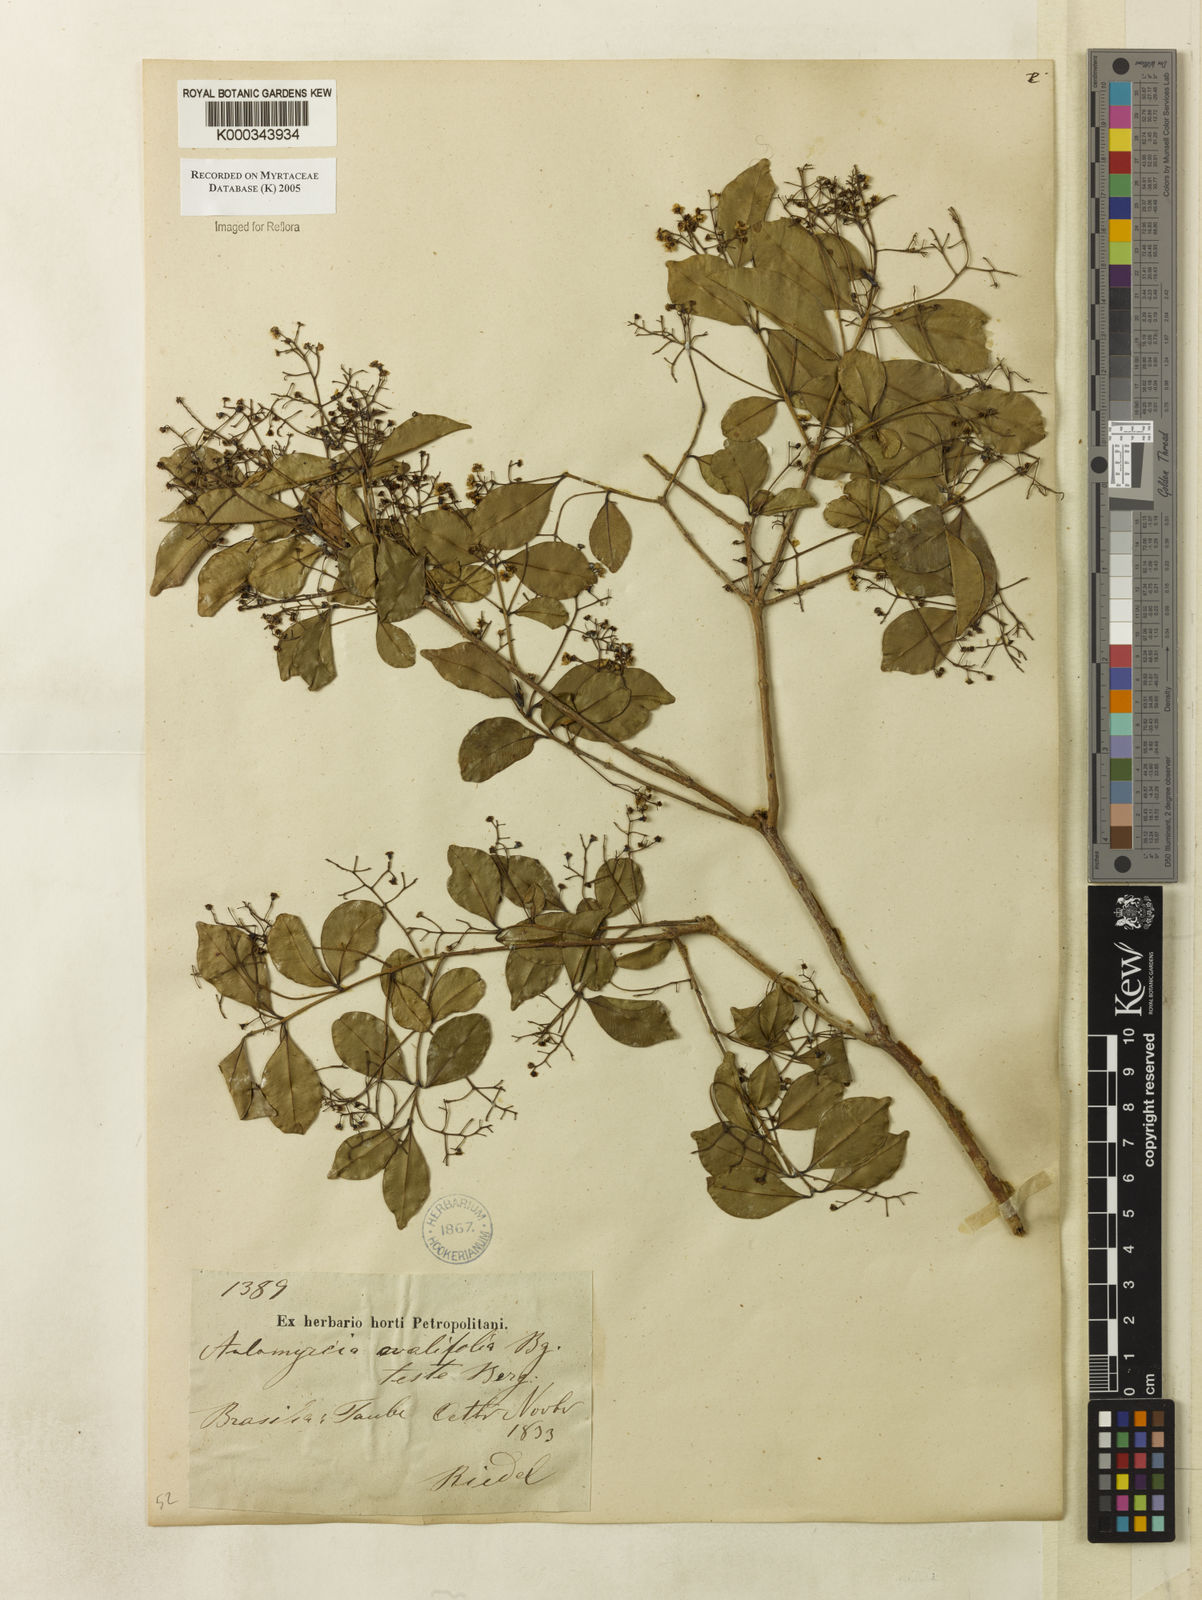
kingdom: Plantae
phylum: Tracheophyta
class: Magnoliopsida
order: Myrtales
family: Myrtaceae
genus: Myrcia
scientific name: Myrcia multiflora
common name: Pedra hume
